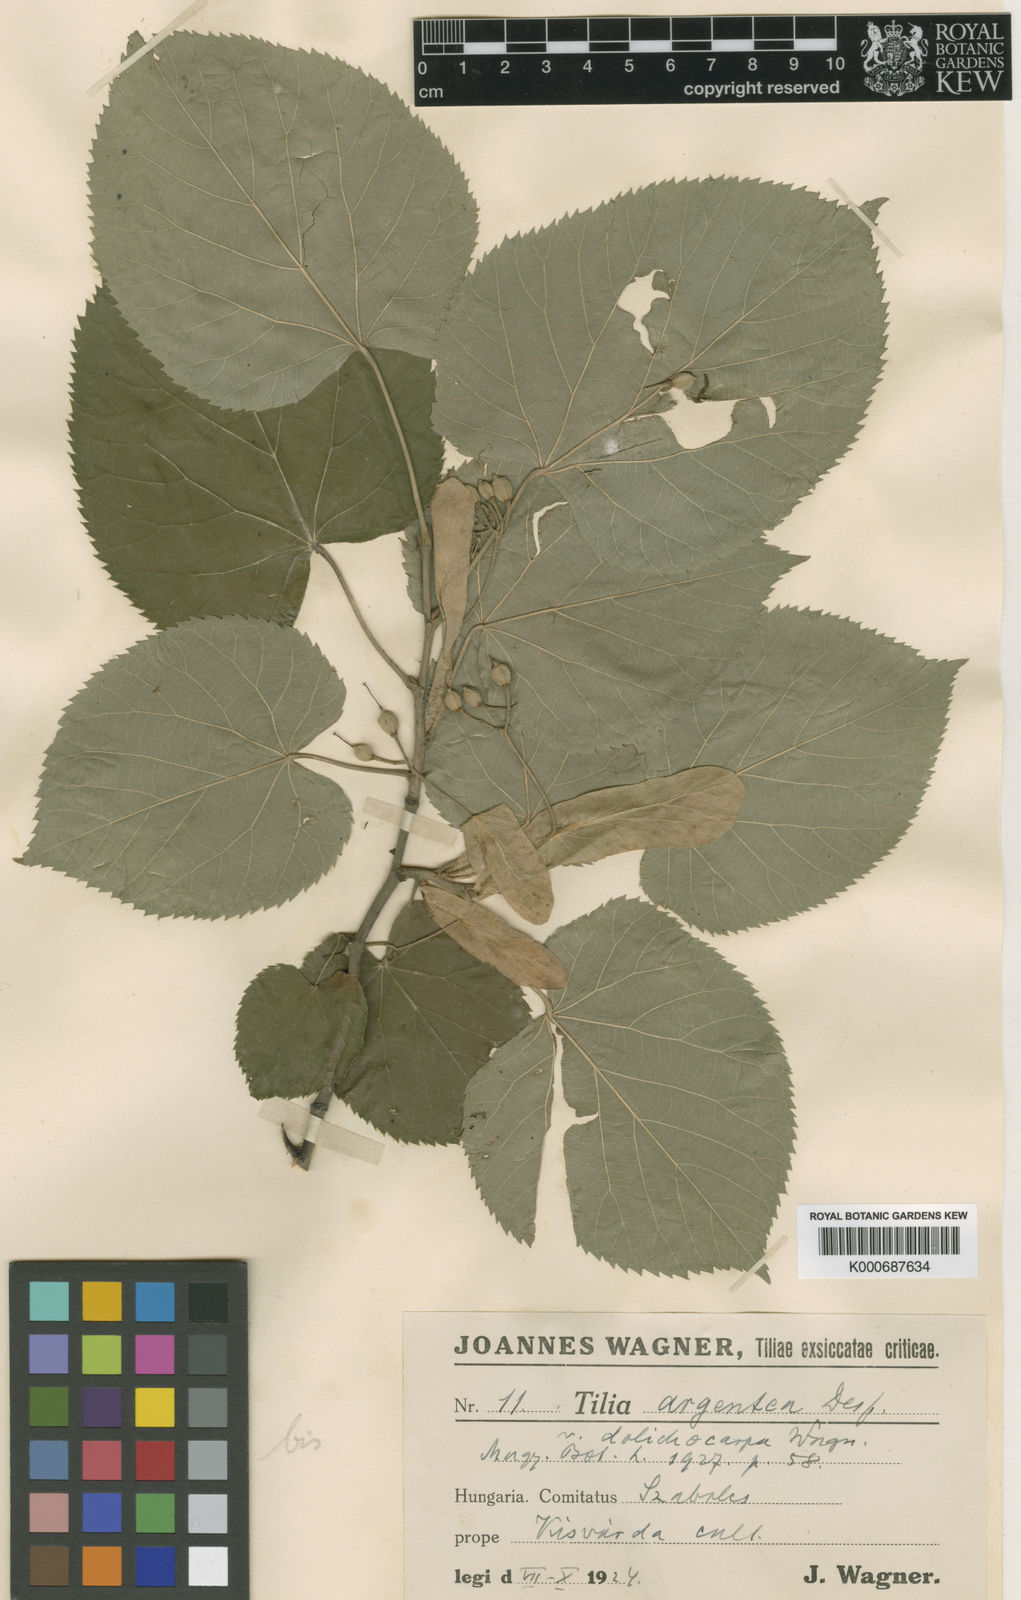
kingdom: Plantae
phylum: Tracheophyta
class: Magnoliopsida
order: Malvales
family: Malvaceae
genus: Tilia
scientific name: Tilia tomentosa
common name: Silver lime
